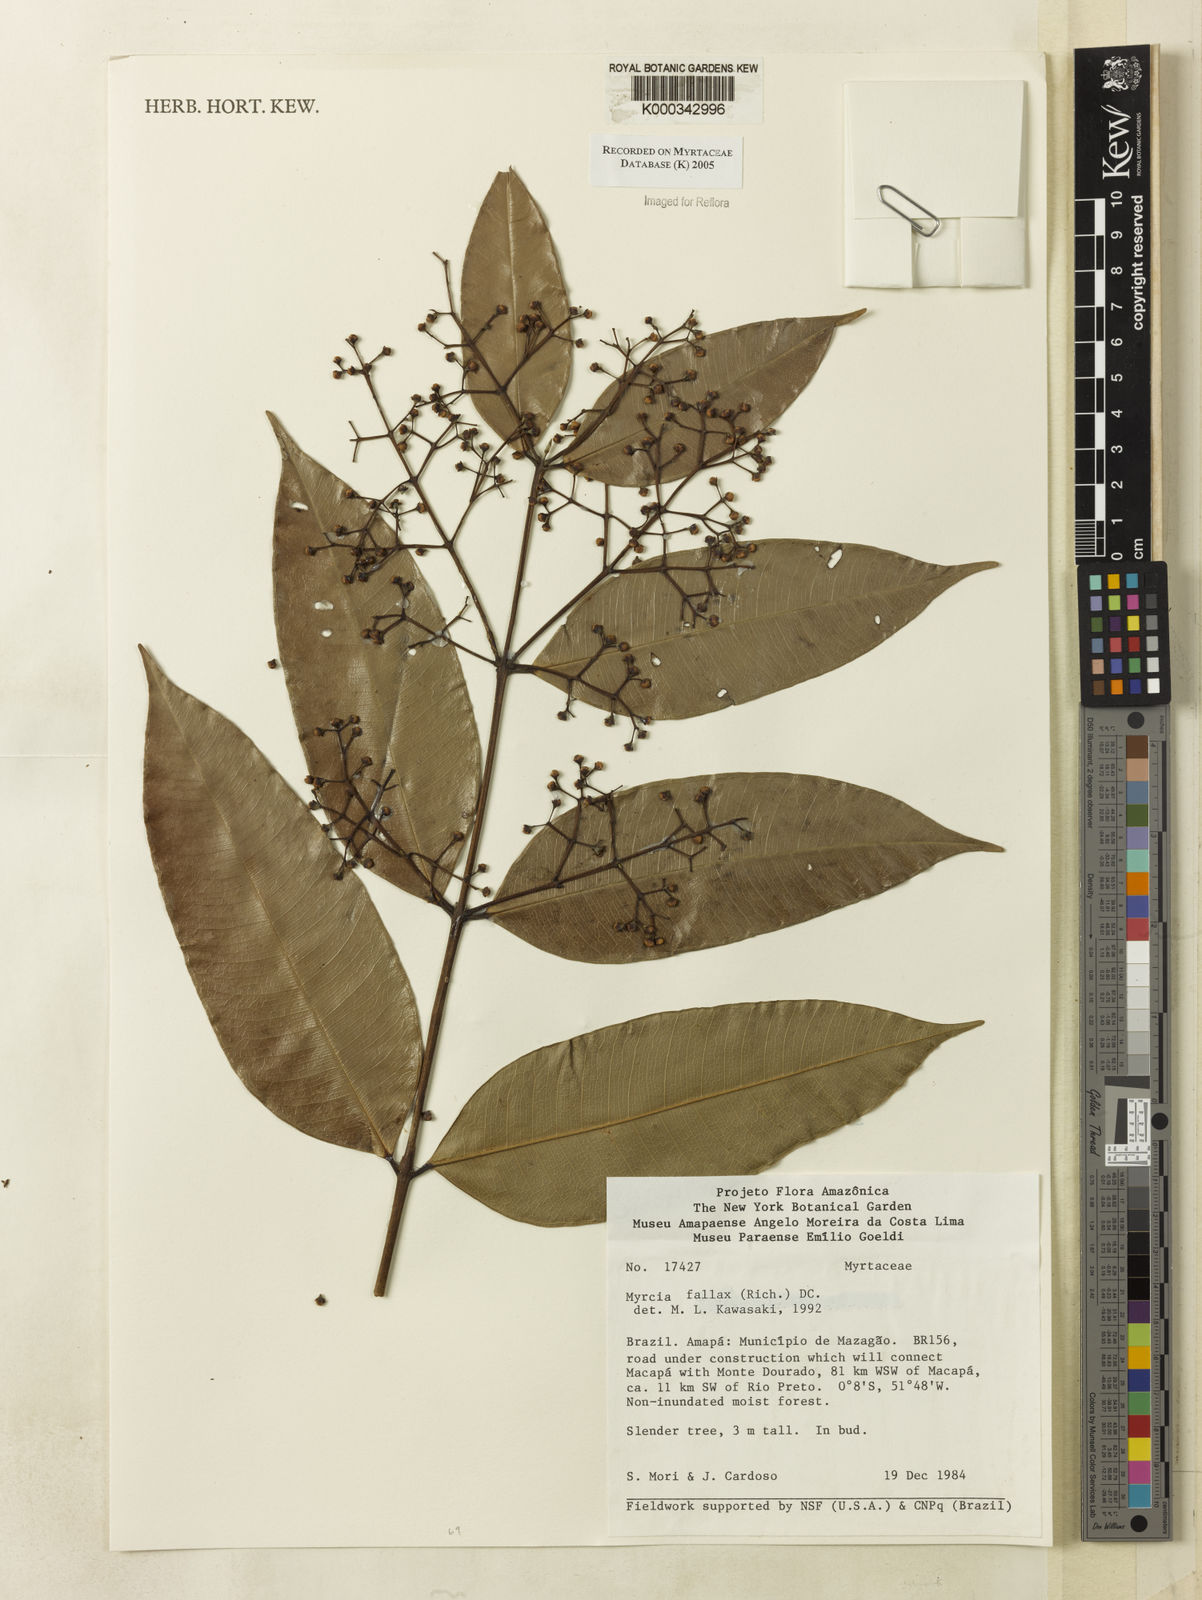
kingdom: Plantae
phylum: Tracheophyta
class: Magnoliopsida
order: Myrtales
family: Myrtaceae
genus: Myrcia
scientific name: Myrcia splendens
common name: Surinam cherry
